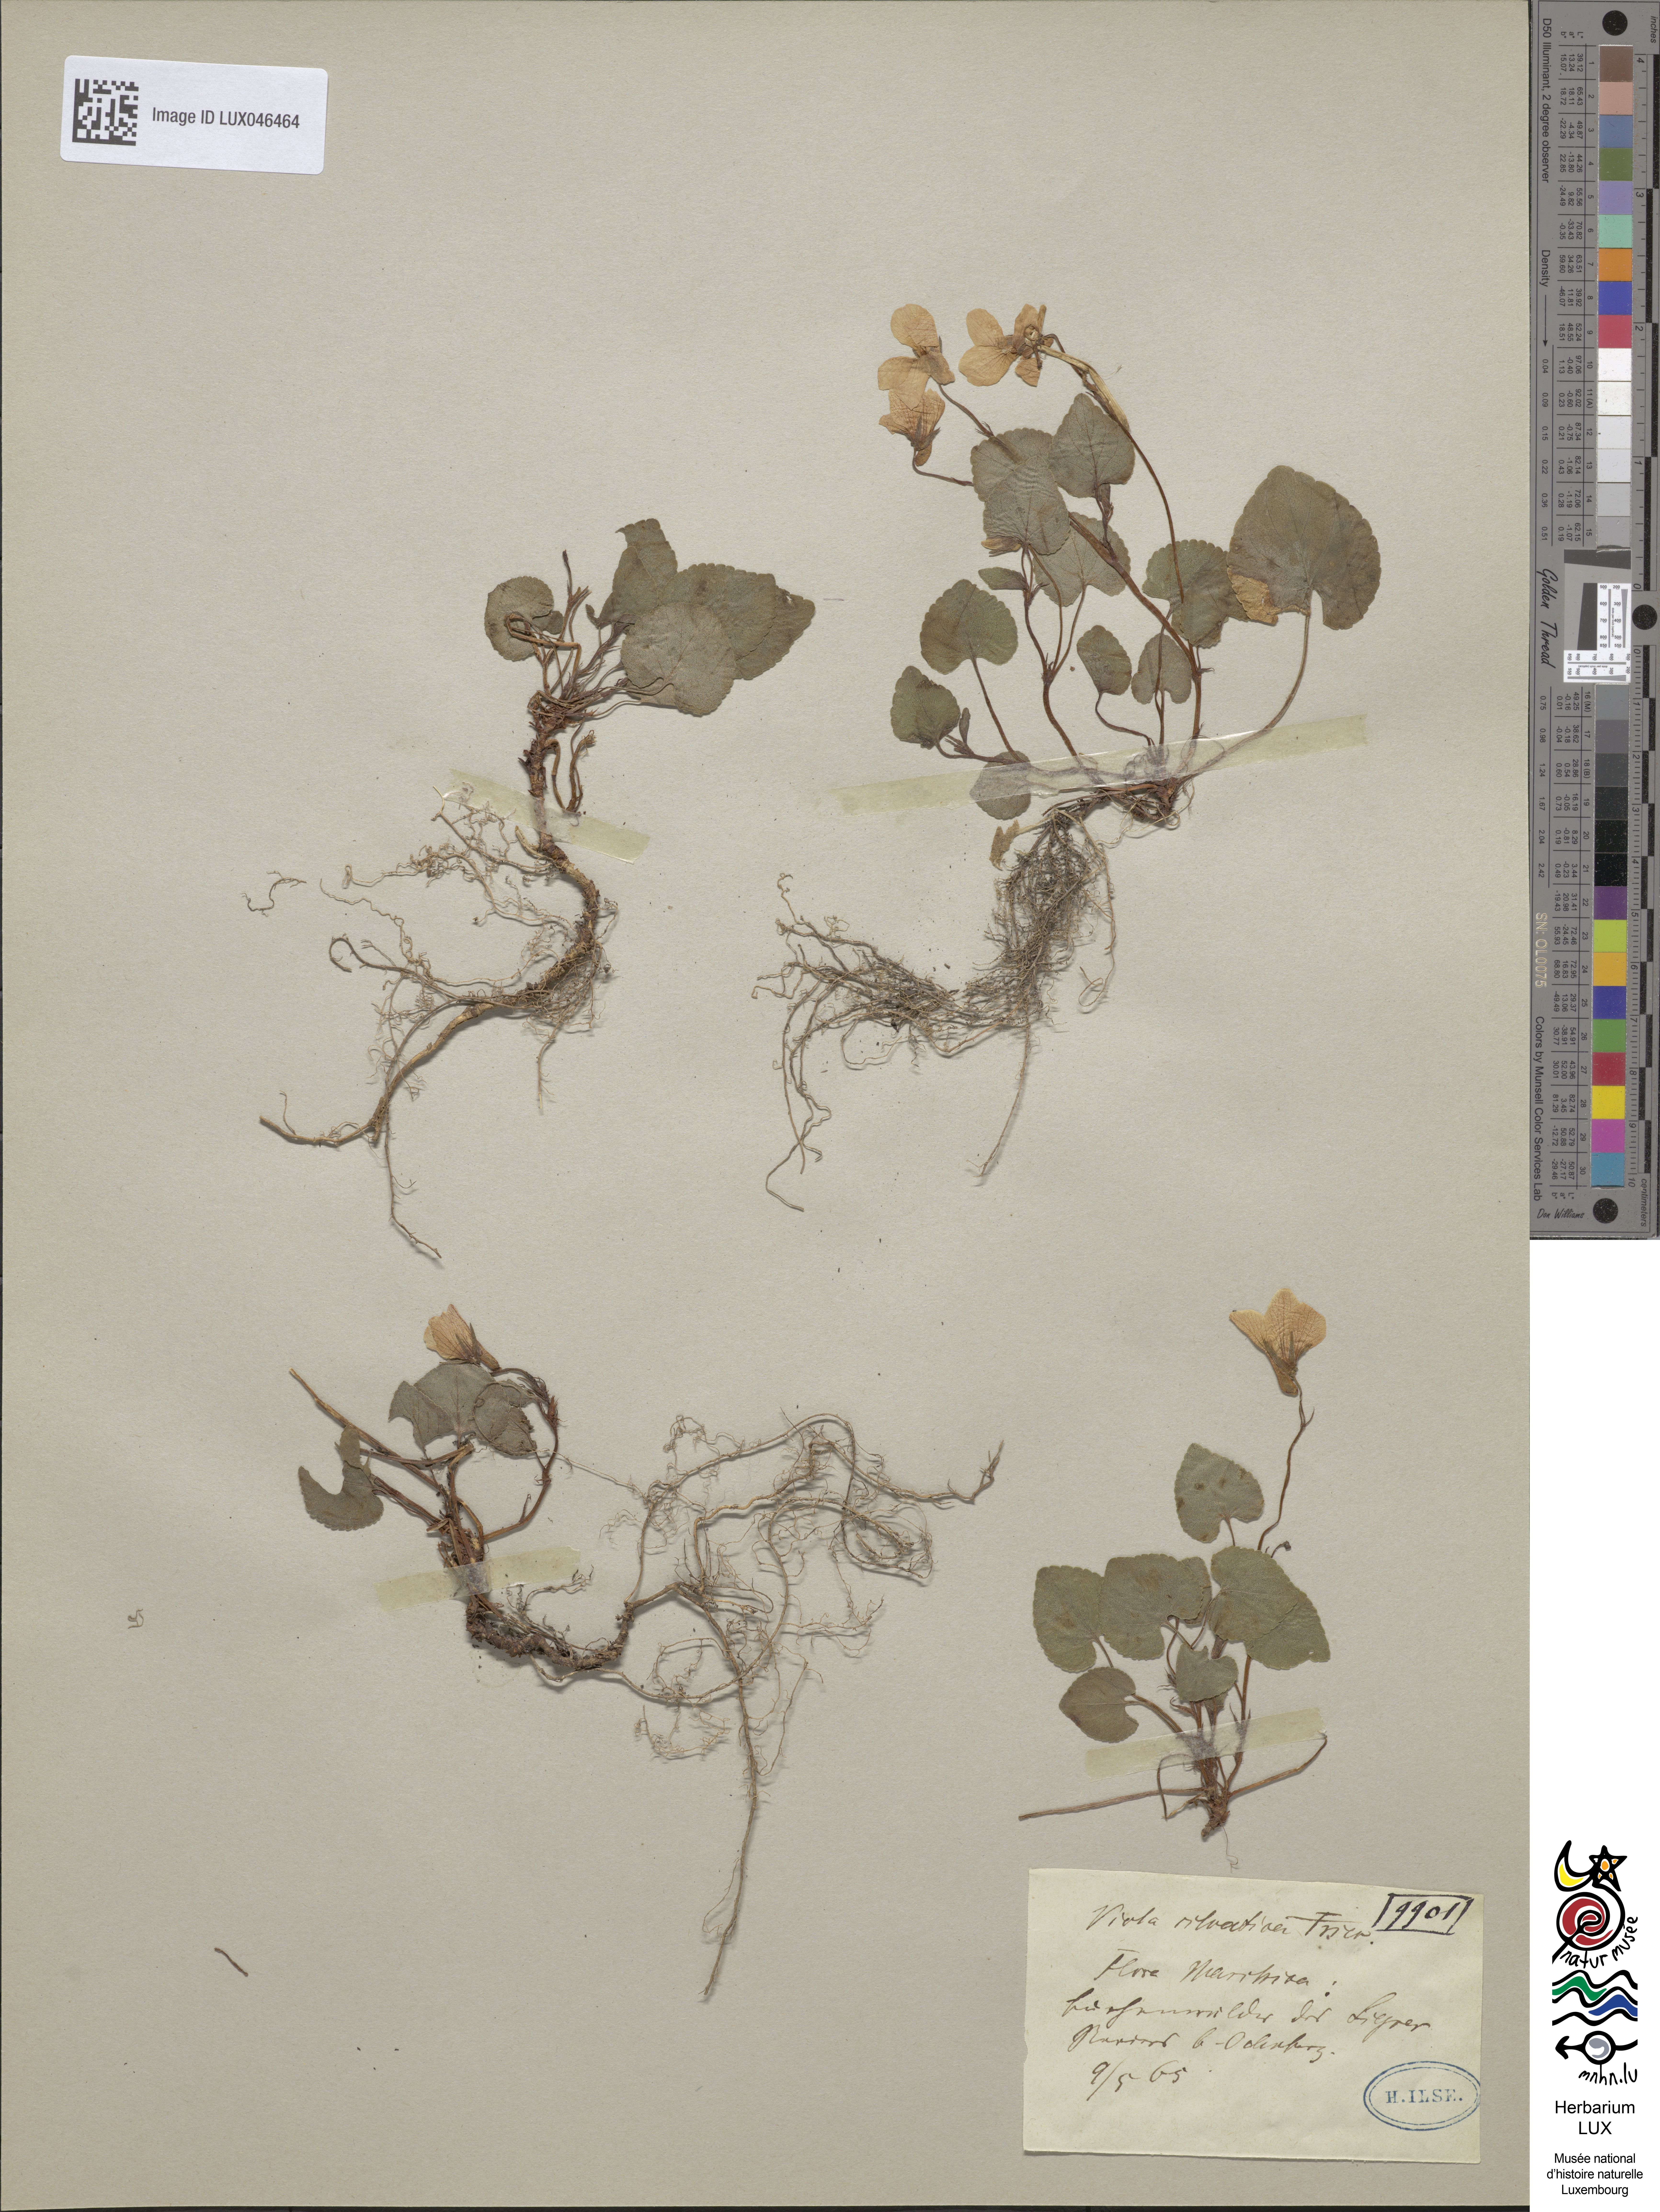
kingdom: Plantae
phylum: Tracheophyta
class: Magnoliopsida
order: Malpighiales
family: Violaceae
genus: Viola
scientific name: Viola reichenbachiana
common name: Early dog-violet
